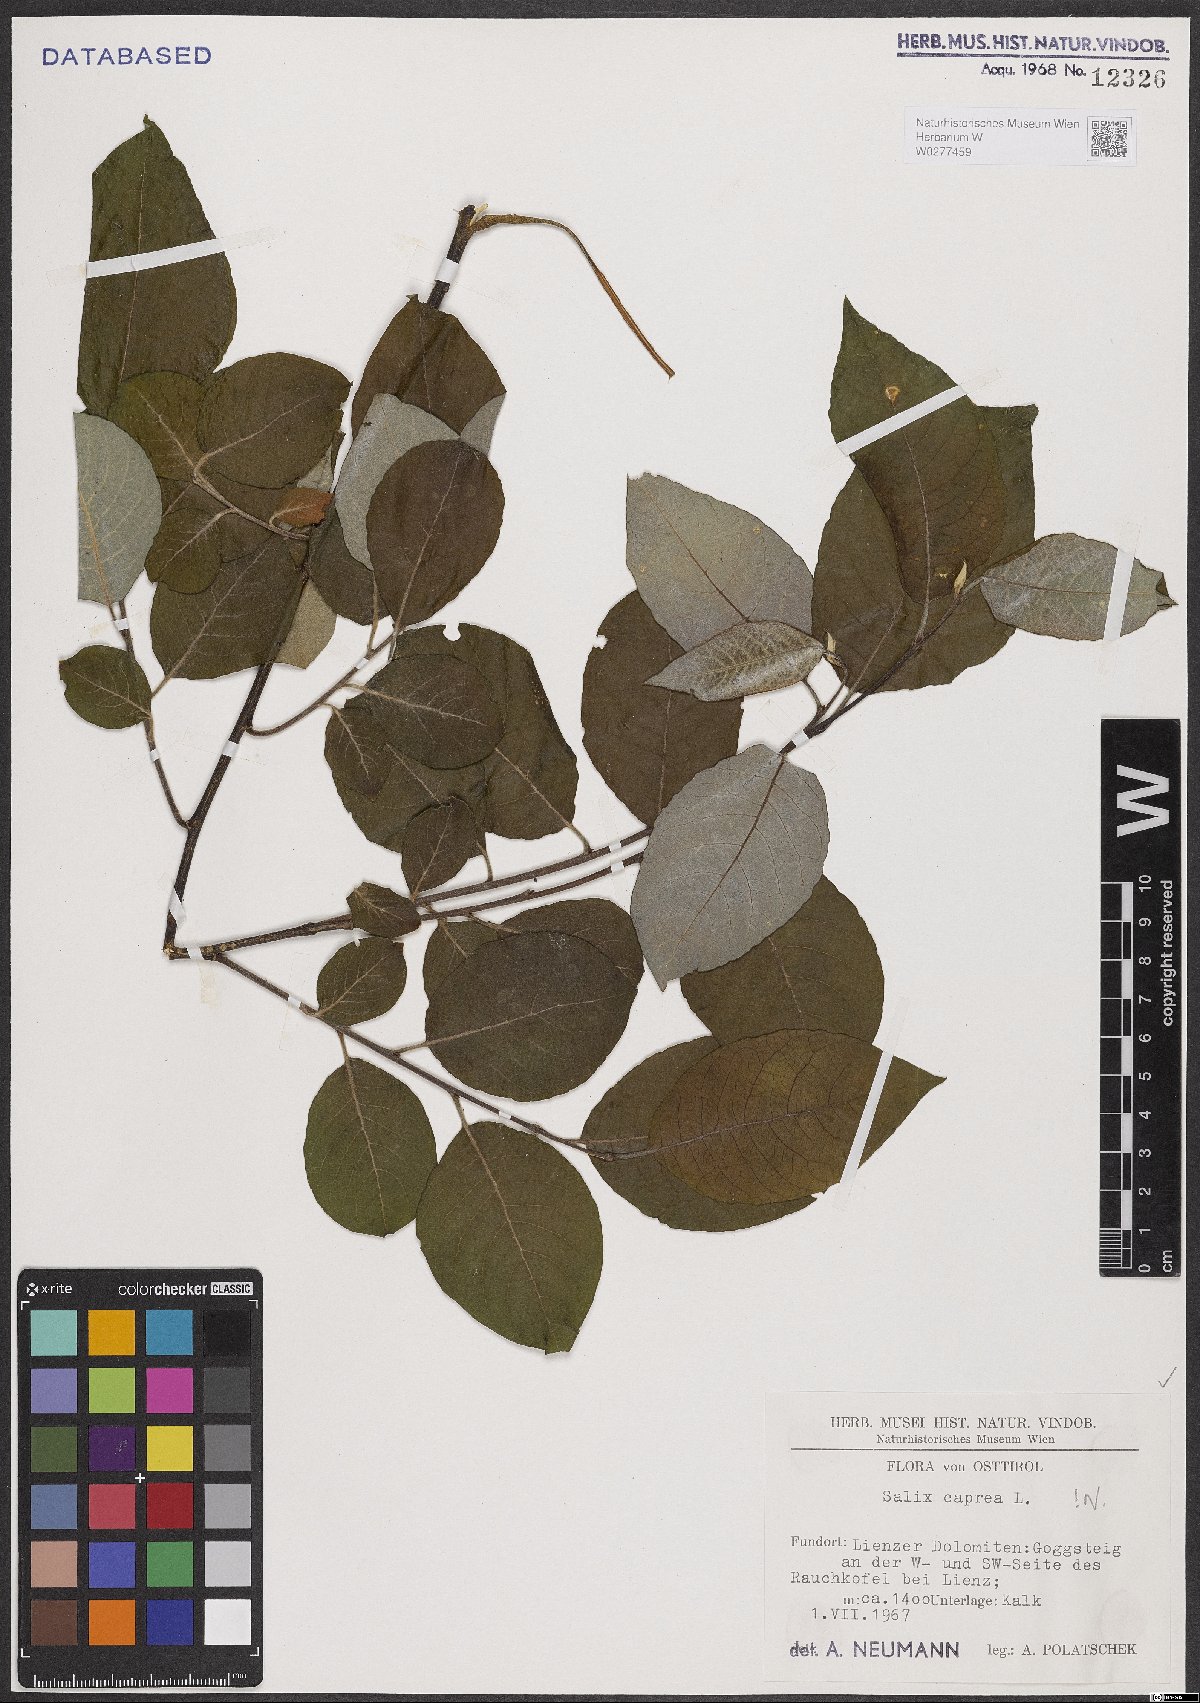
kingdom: Plantae
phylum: Tracheophyta
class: Magnoliopsida
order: Malpighiales
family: Salicaceae
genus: Salix
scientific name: Salix caprea
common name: Goat willow
